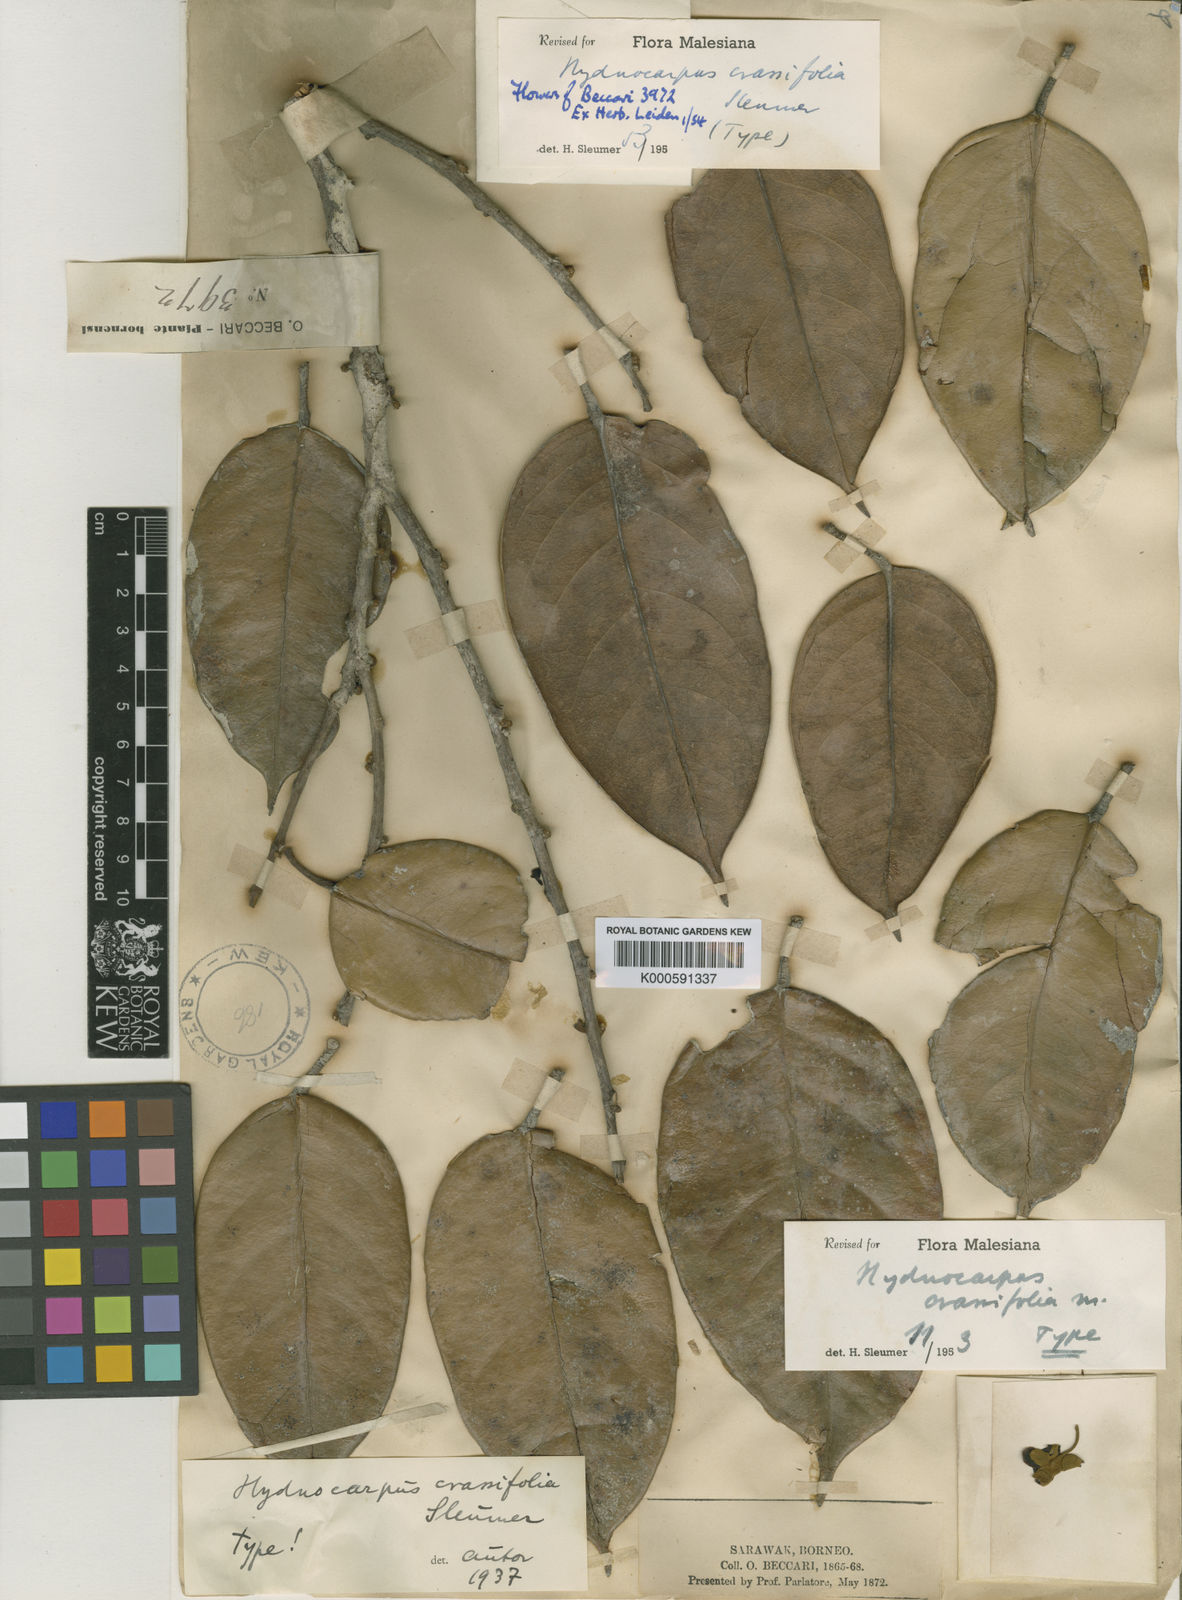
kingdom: Plantae
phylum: Tracheophyta
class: Magnoliopsida
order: Malpighiales
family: Achariaceae
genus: Hydnocarpus
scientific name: Hydnocarpus crassifolius
